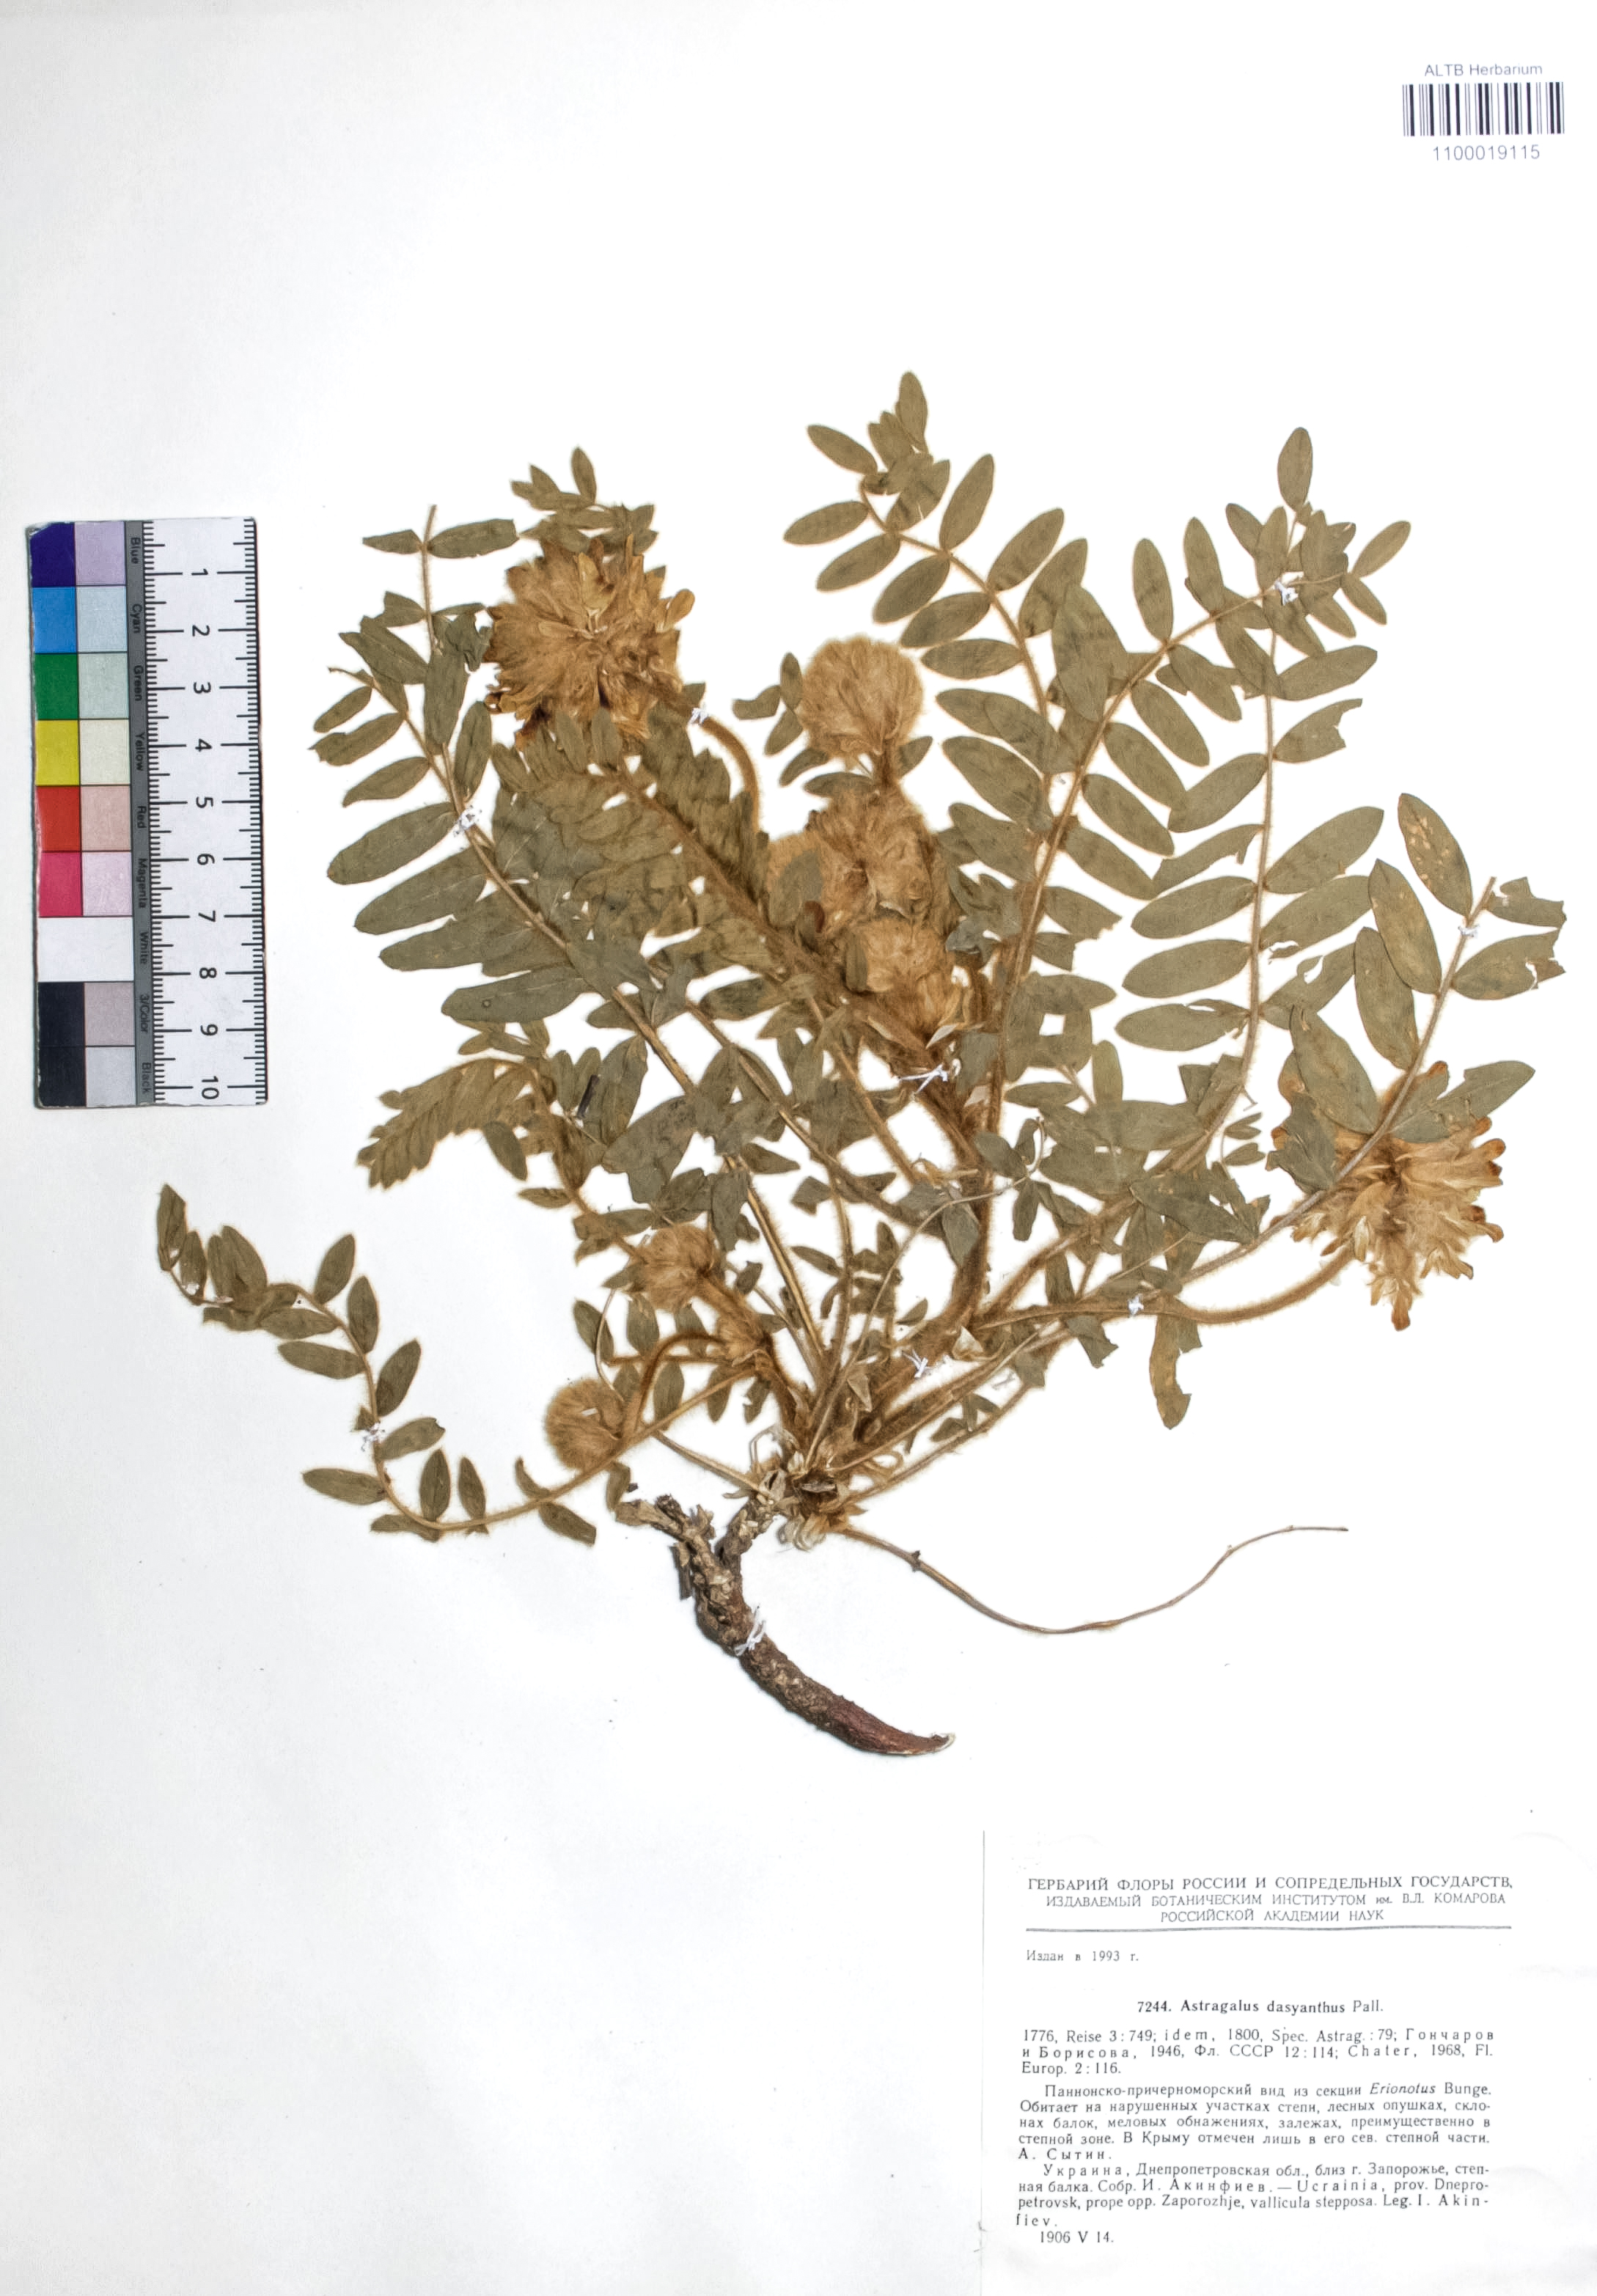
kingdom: Plantae
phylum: Tracheophyta
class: Magnoliopsida
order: Fabales
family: Fabaceae
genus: Astragalus
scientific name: Astragalus dasyanthus
